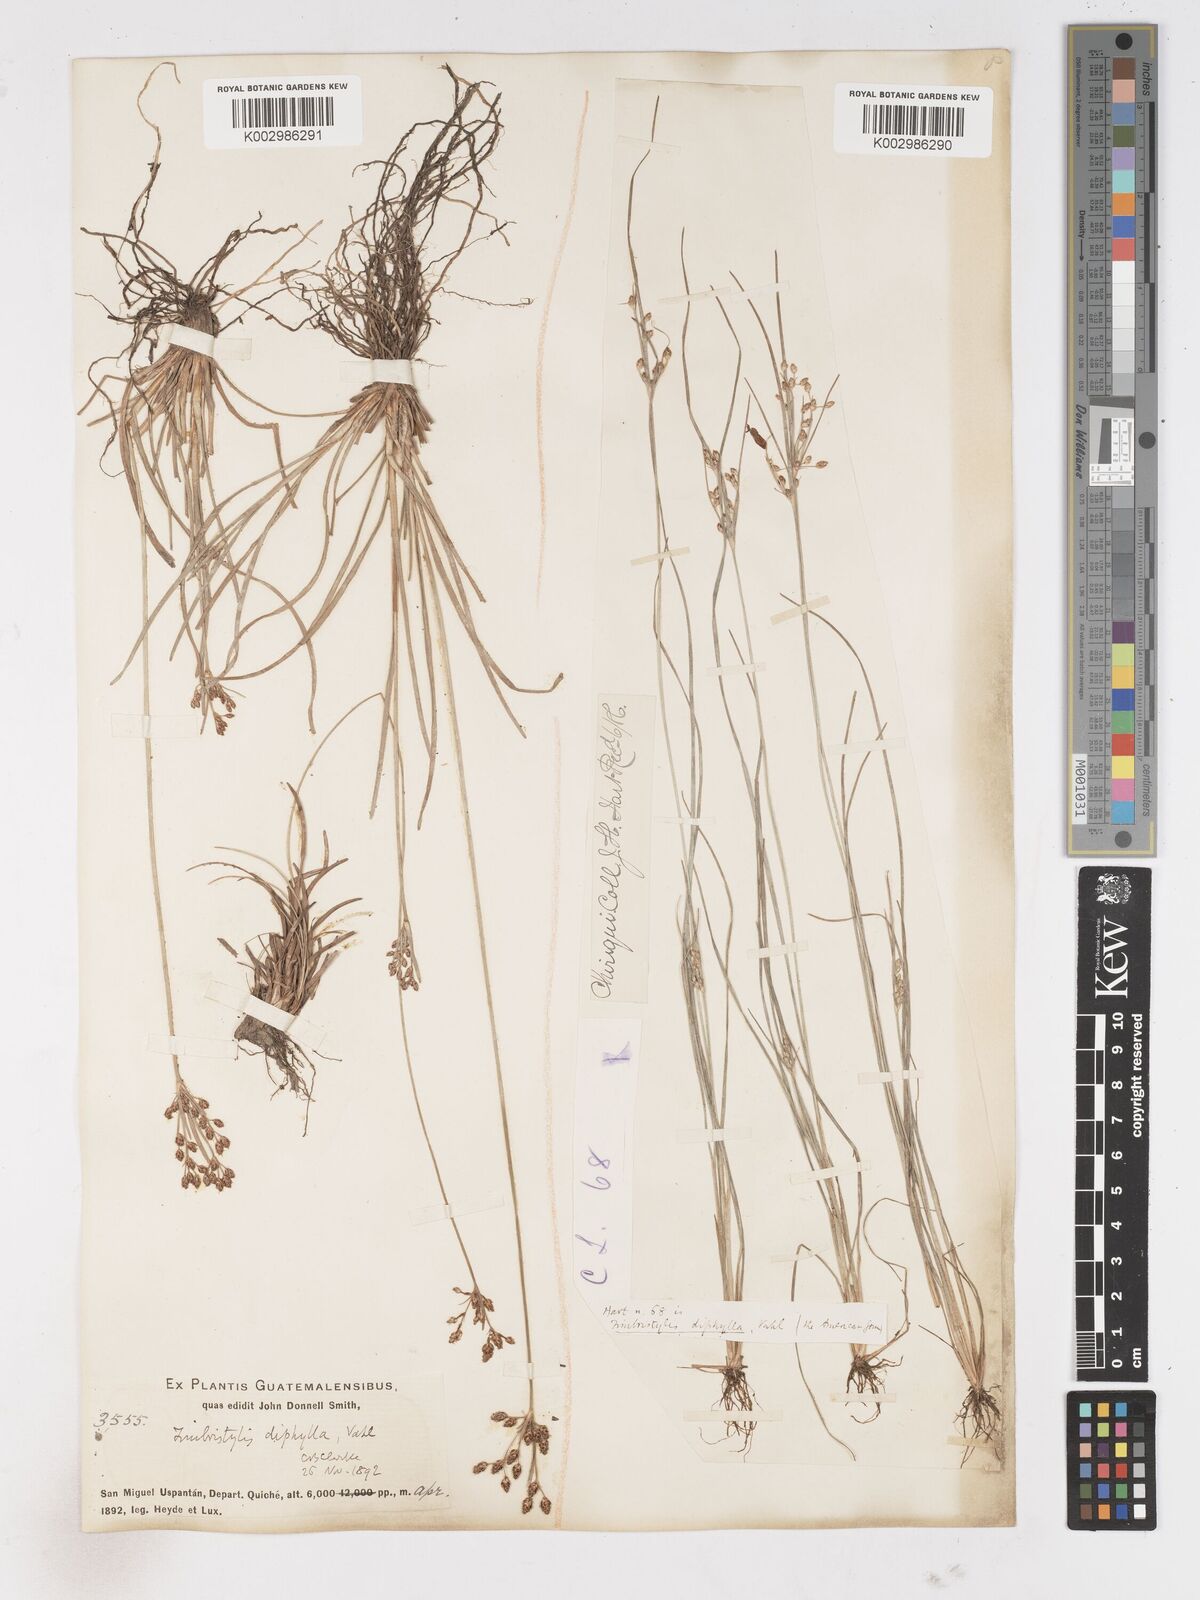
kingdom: Plantae
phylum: Tracheophyta
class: Liliopsida
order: Poales
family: Cyperaceae
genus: Fimbristylis
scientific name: Fimbristylis dichotoma
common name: Forked fimbry
